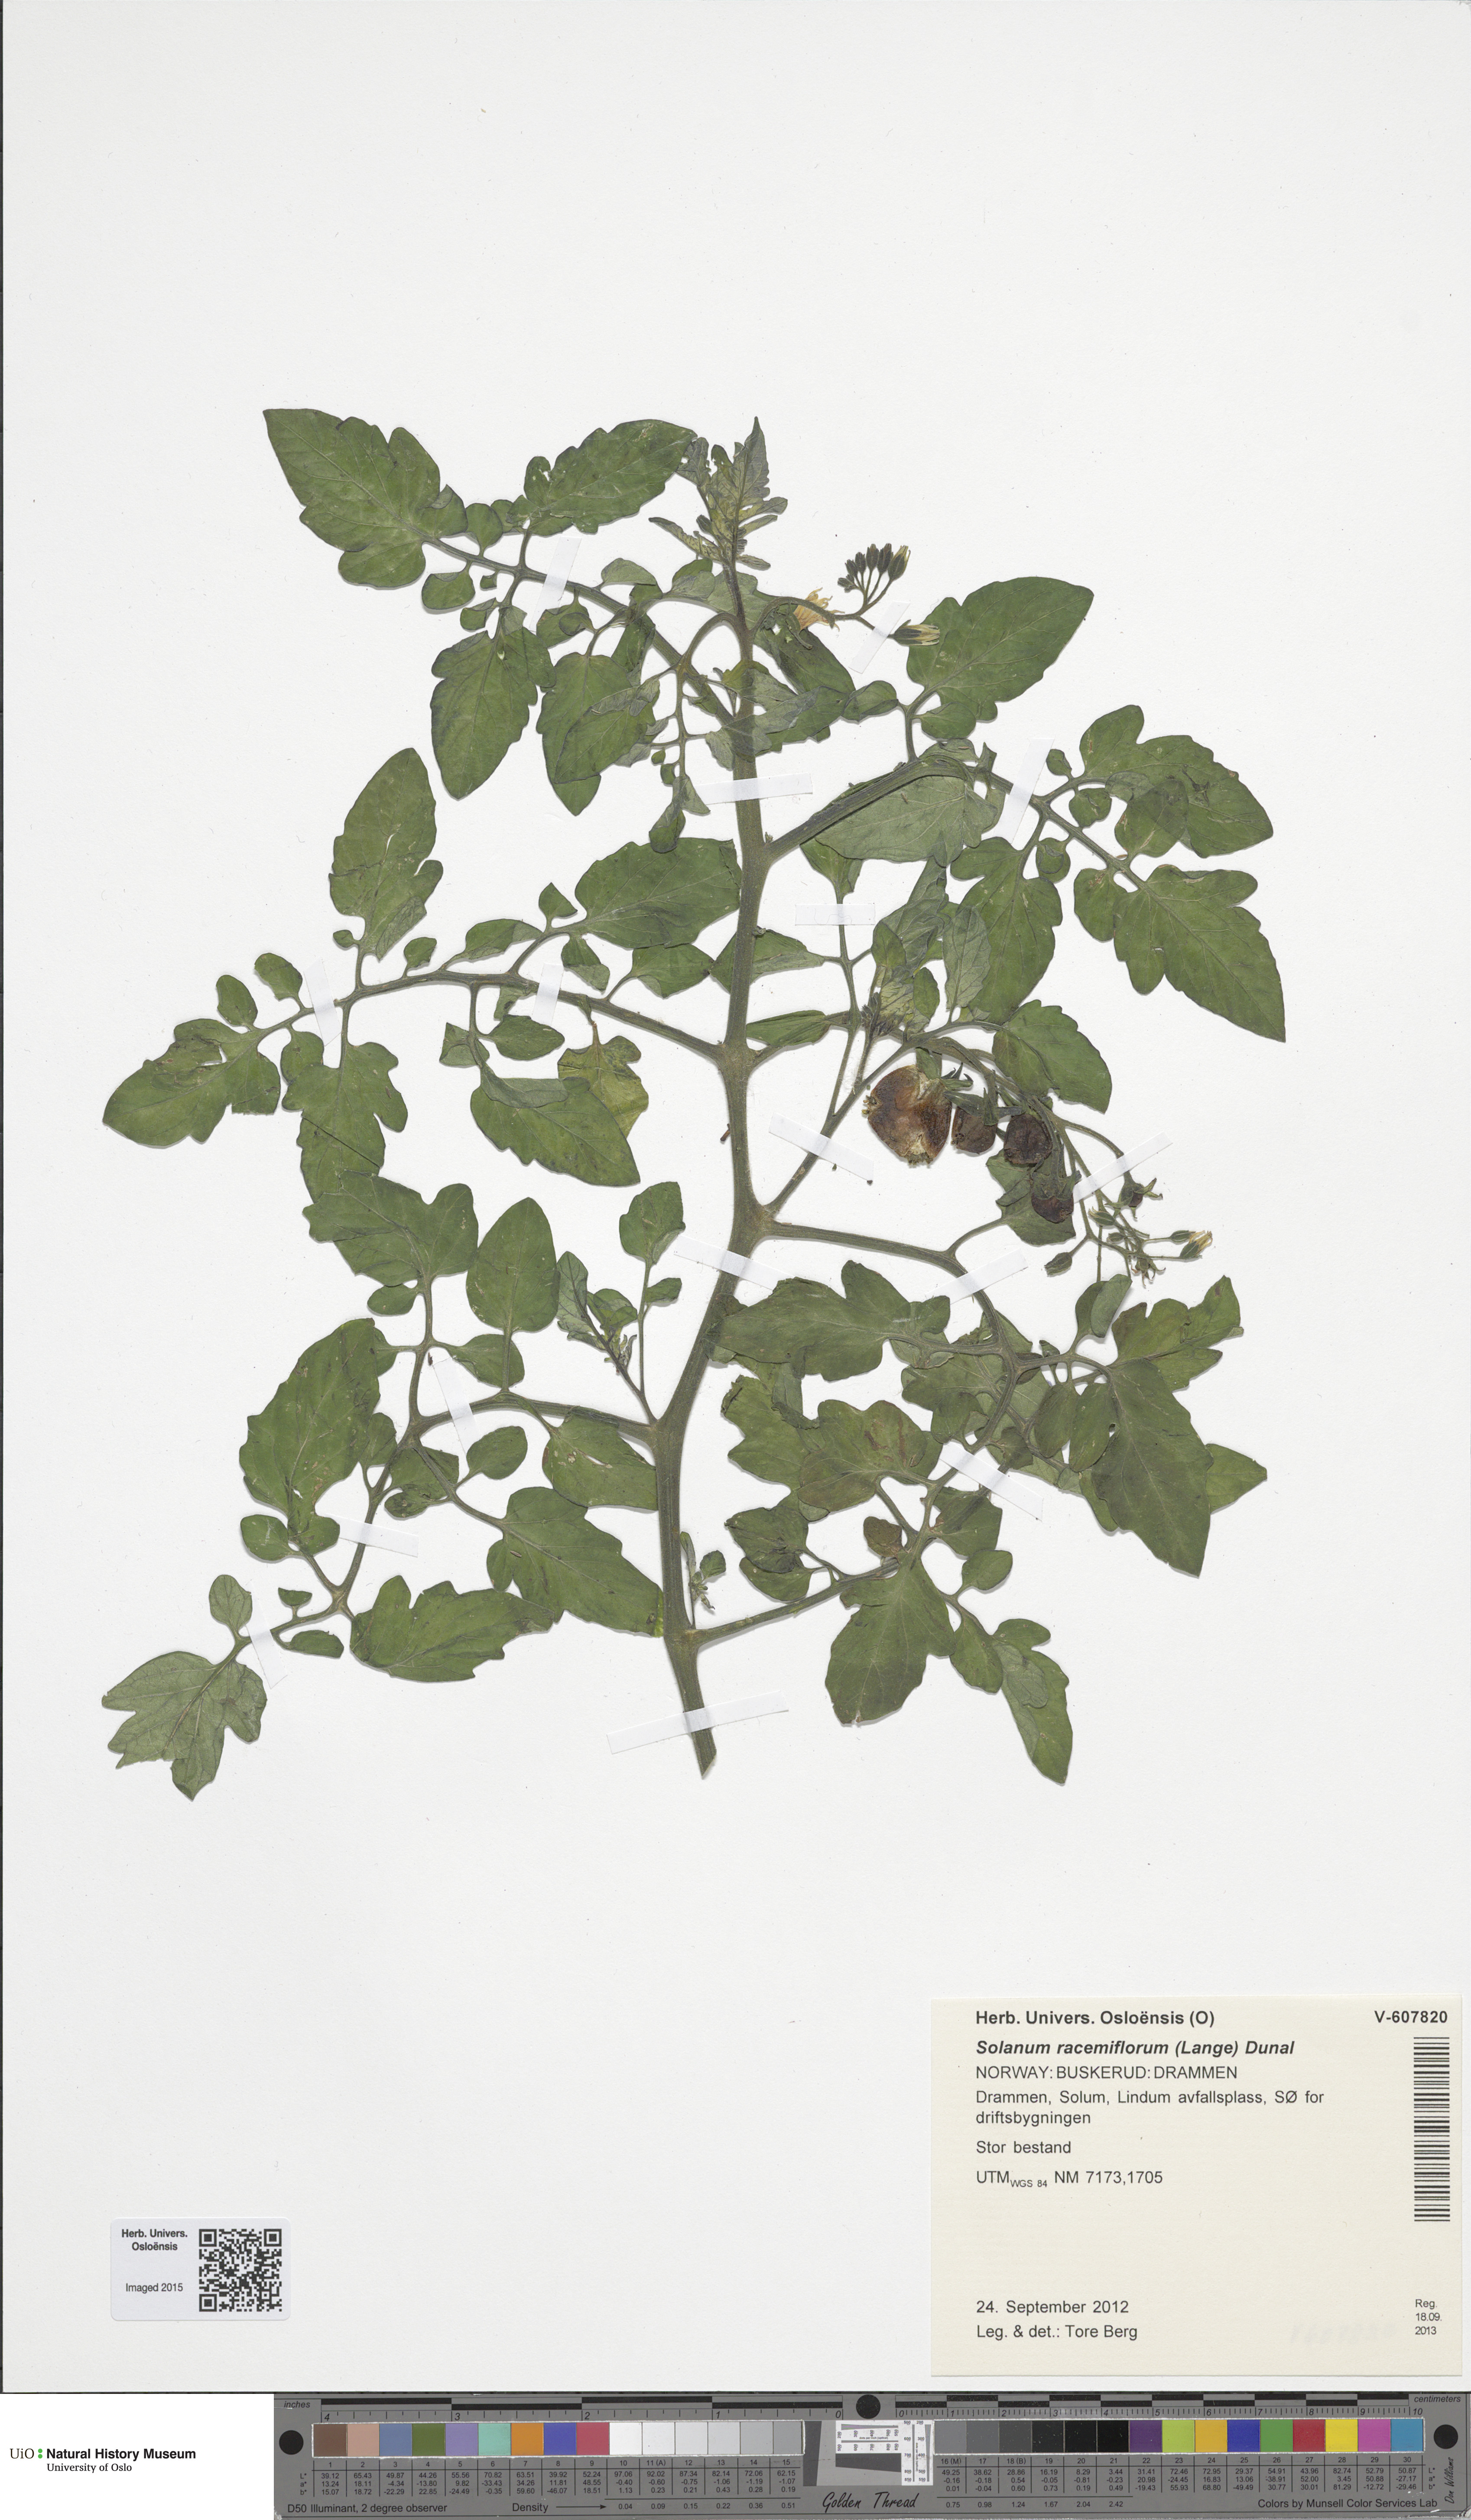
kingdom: Plantae
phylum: Tracheophyta
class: Magnoliopsida
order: Solanales
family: Solanaceae
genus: Solanum
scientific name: Solanum
